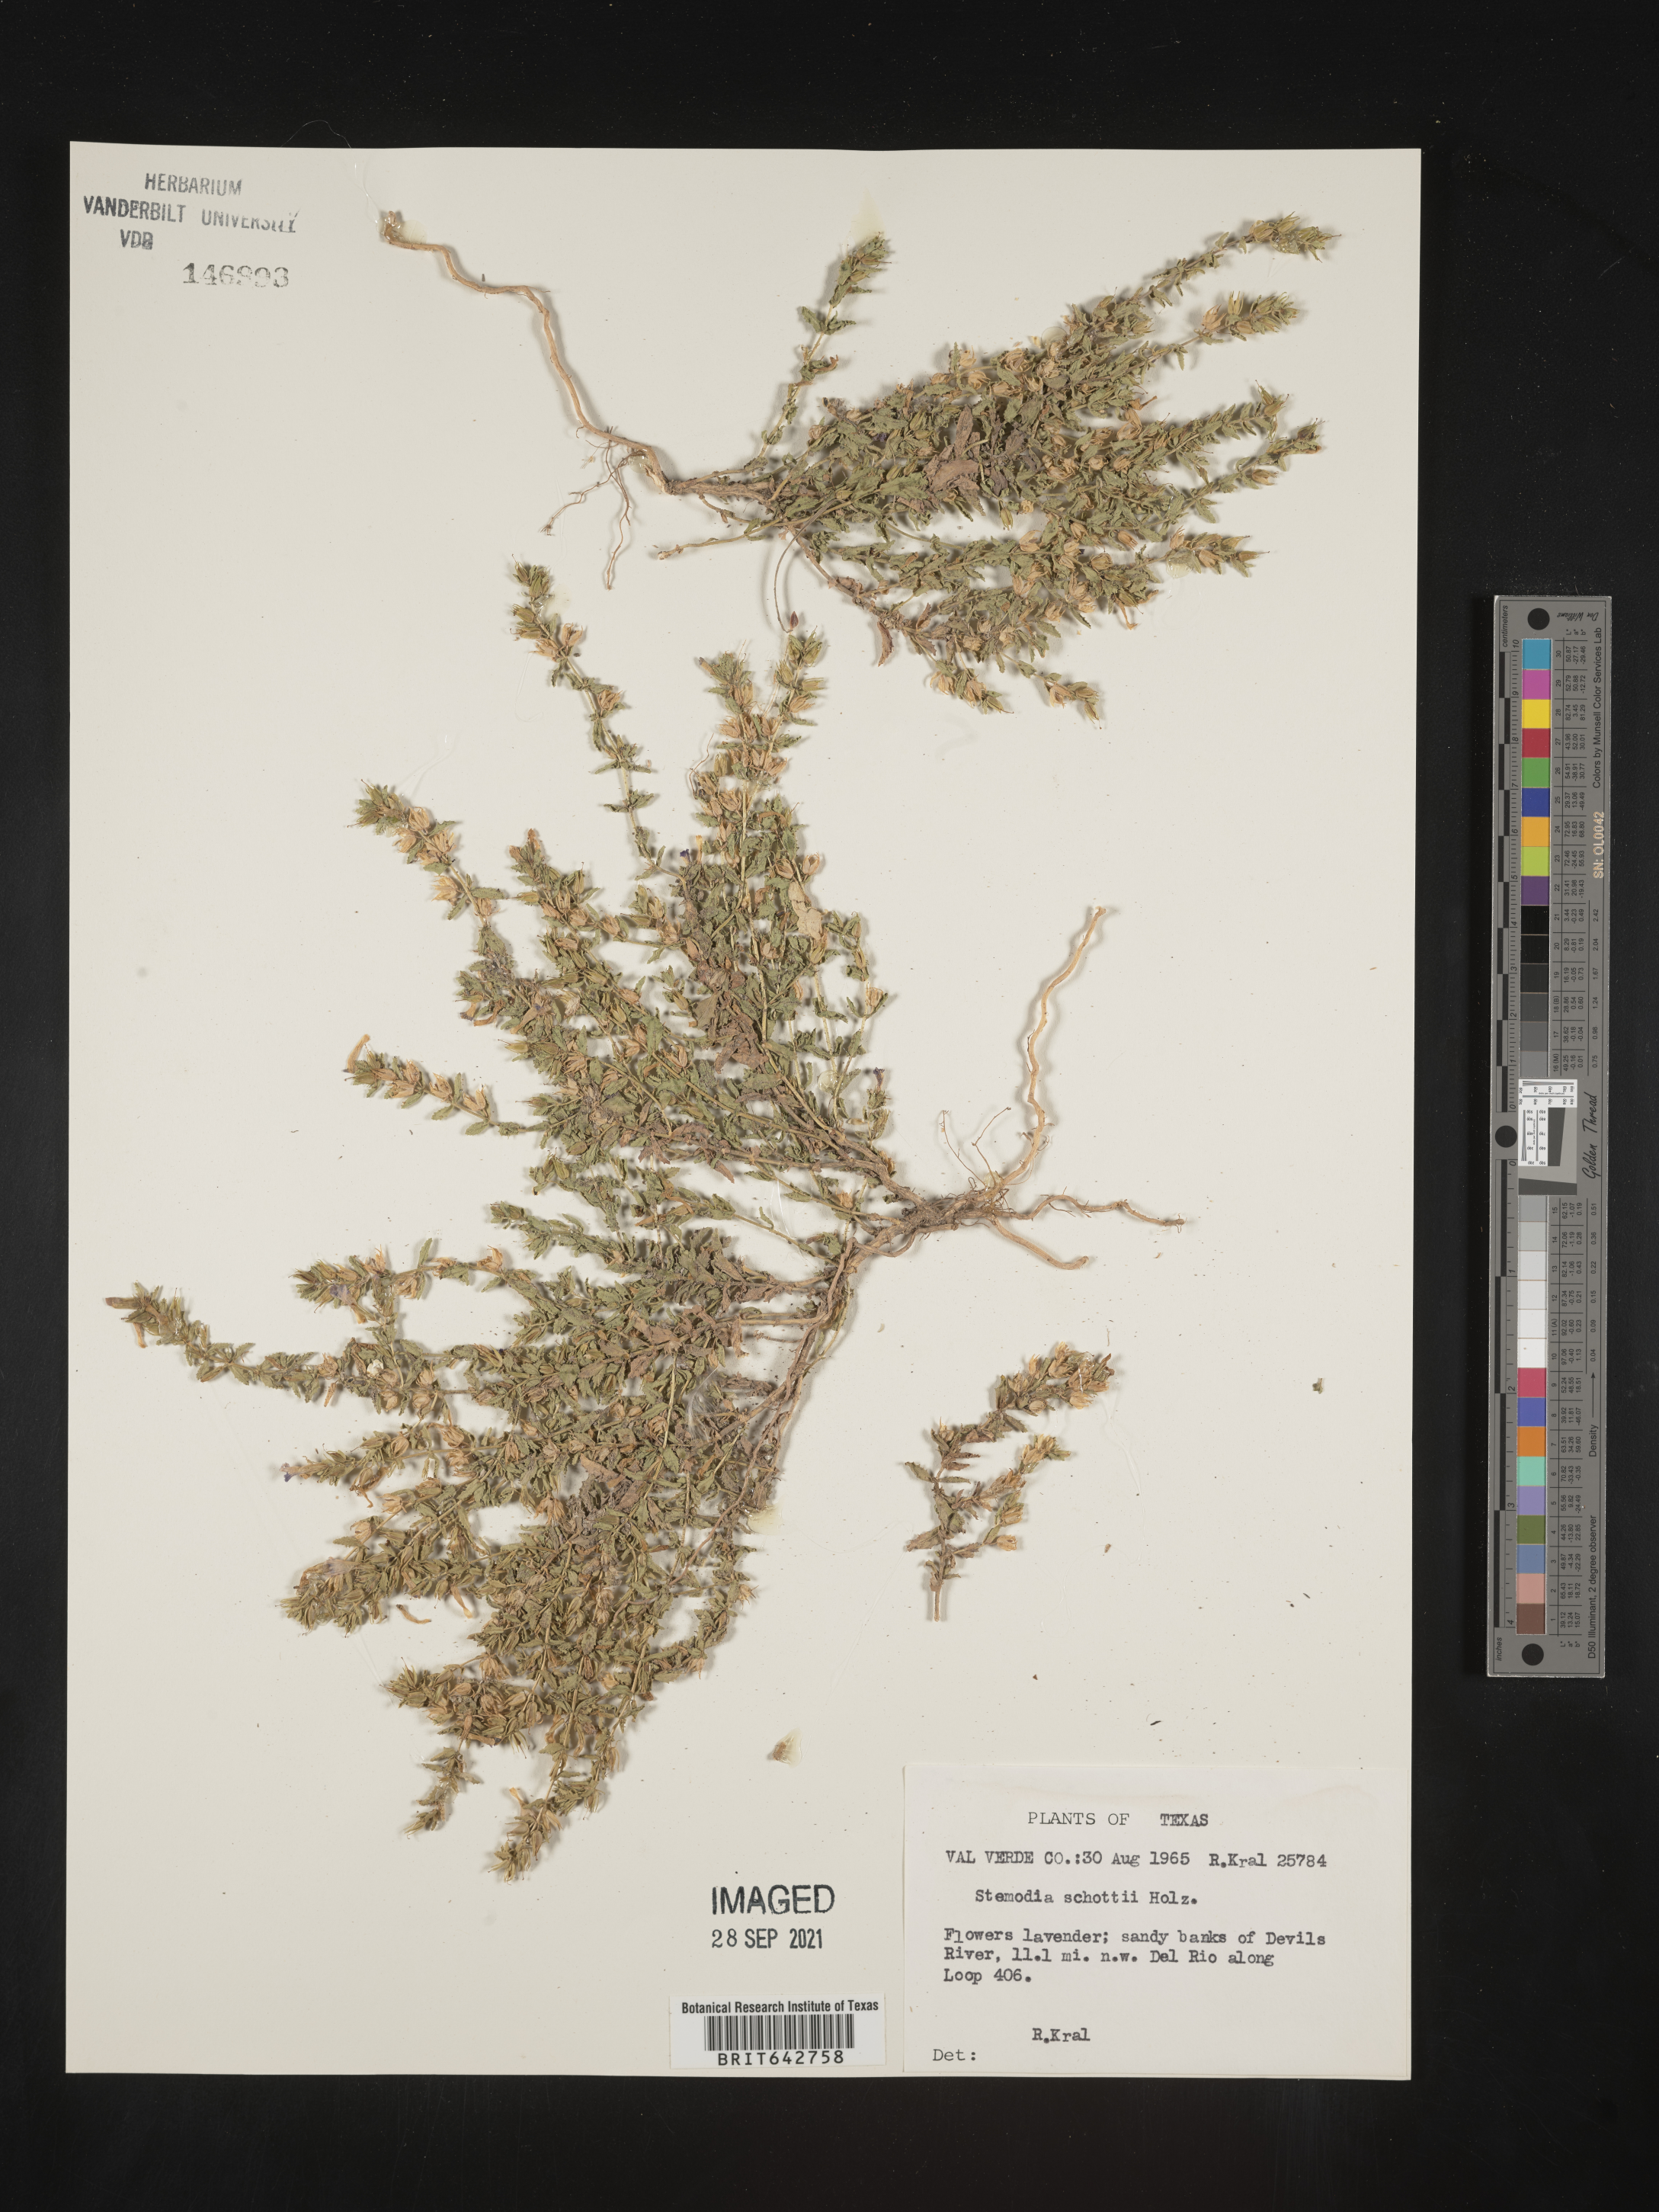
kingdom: Plantae
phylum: Tracheophyta
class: Magnoliopsida
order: Lamiales
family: Plantaginaceae
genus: Stemodia
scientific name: Stemodia
